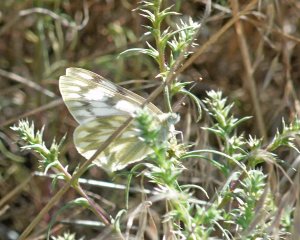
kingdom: Animalia
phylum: Arthropoda
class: Insecta
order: Lepidoptera
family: Pieridae
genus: Pontia
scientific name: Pontia occidentalis
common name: Western White
